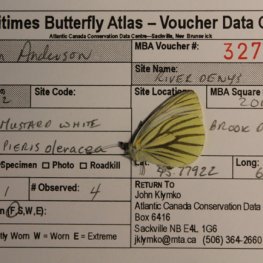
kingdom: Animalia
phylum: Arthropoda
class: Insecta
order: Lepidoptera
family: Pieridae
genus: Pieris
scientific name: Pieris oleracea
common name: Mustard White
